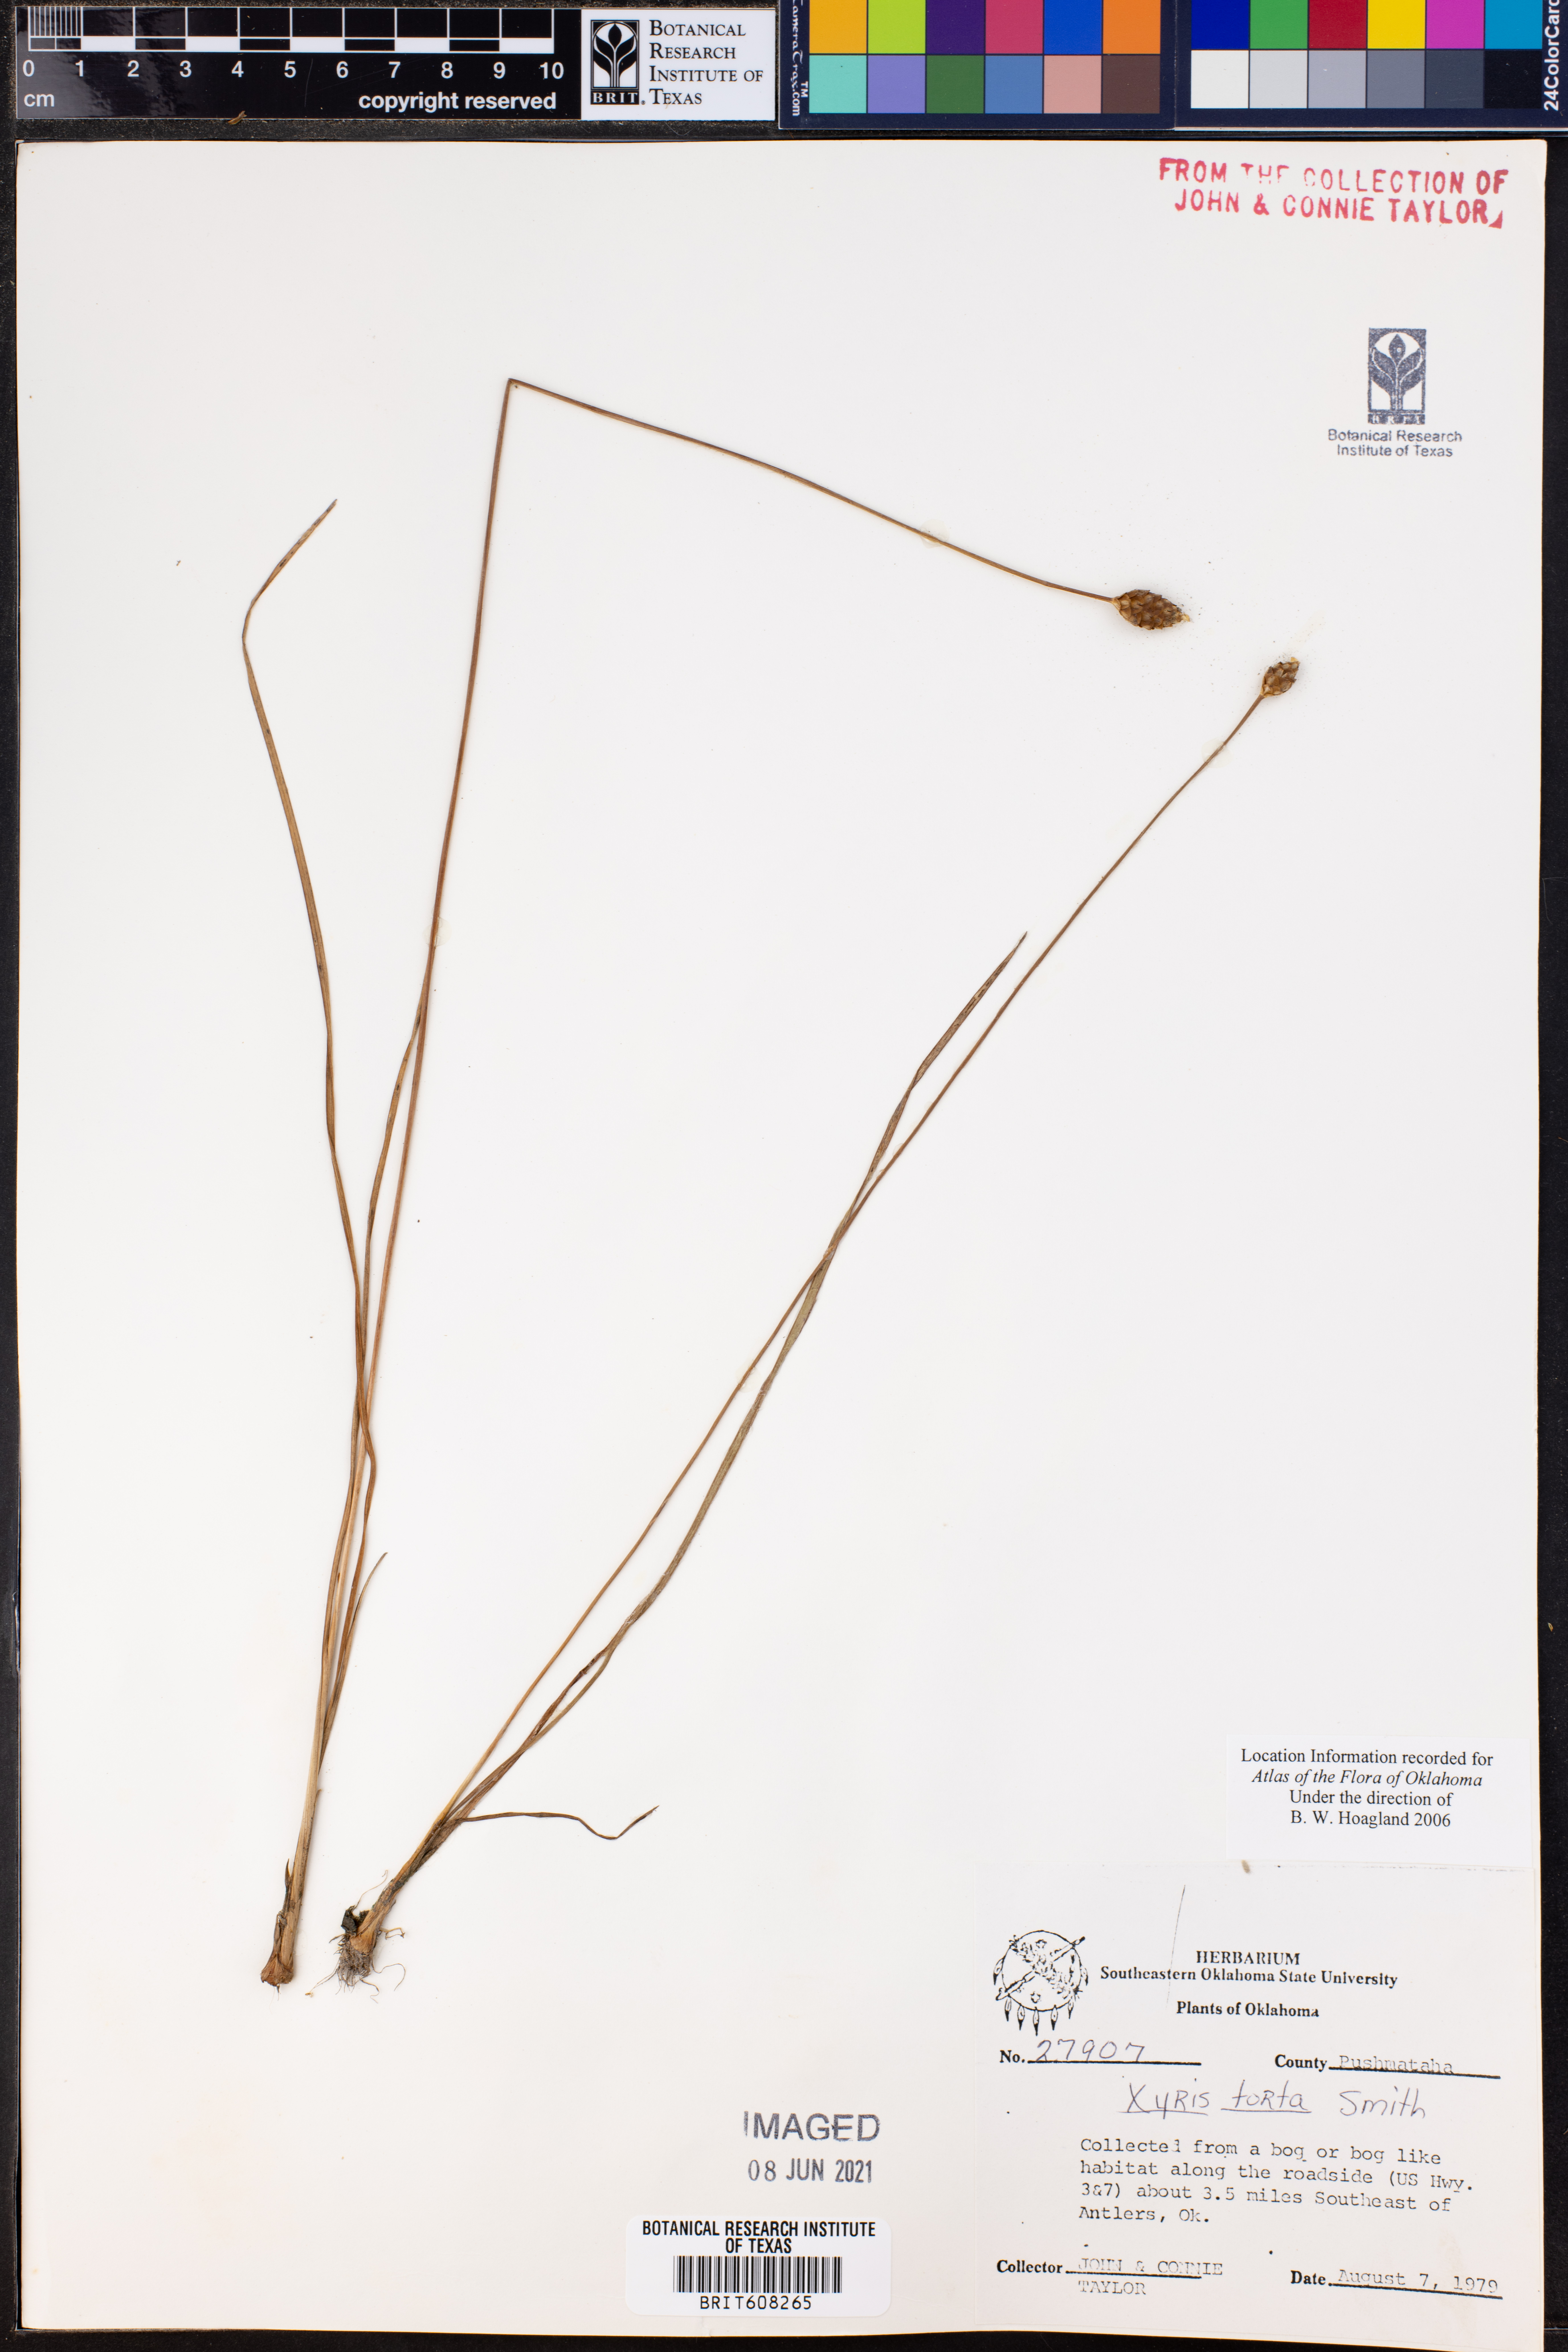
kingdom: Plantae
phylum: Tracheophyta
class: Liliopsida
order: Poales
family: Xyridaceae
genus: Xyris
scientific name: Xyris torta
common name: Common yelloweyed grass
